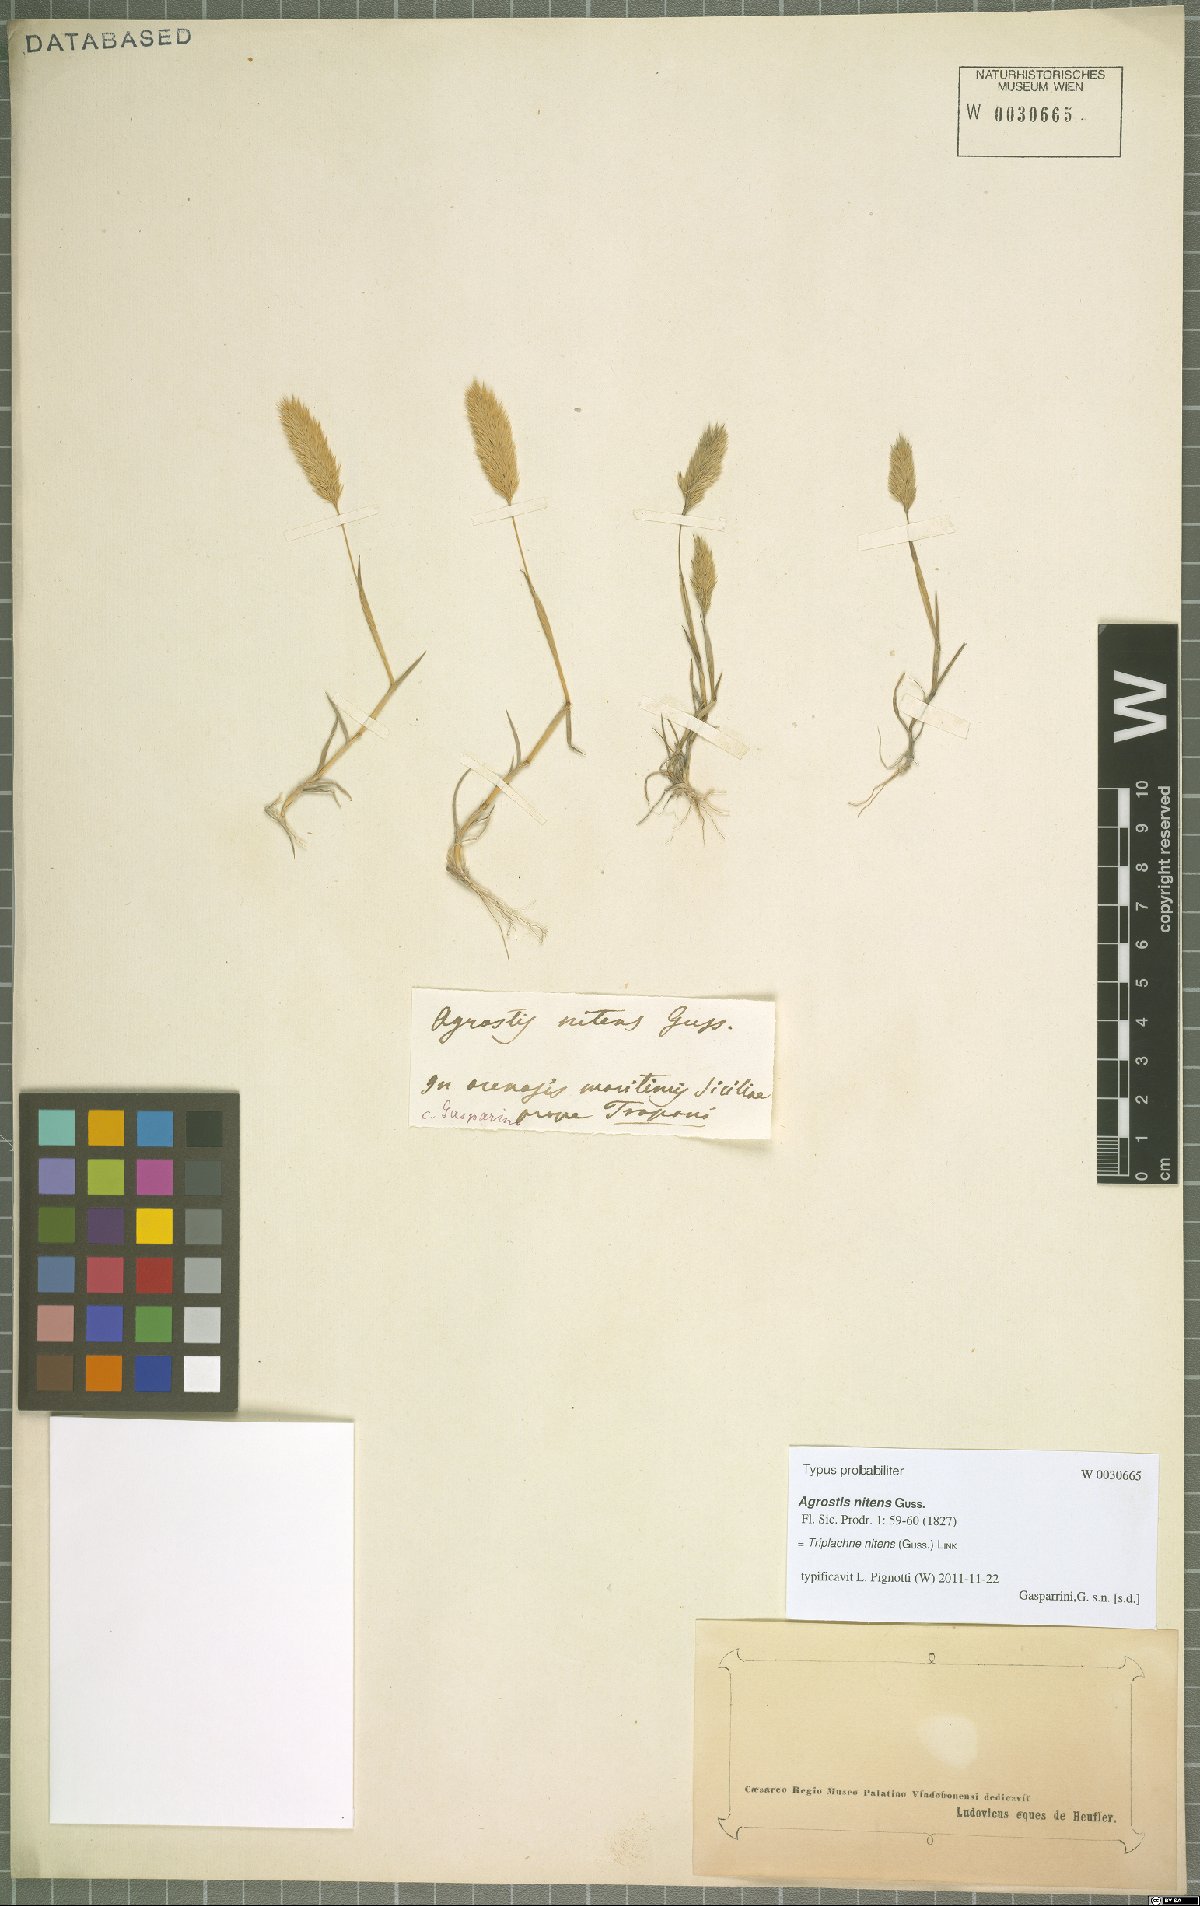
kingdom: Plantae
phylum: Tracheophyta
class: Liliopsida
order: Poales
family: Poaceae
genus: Triplachne
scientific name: Triplachne nitens
